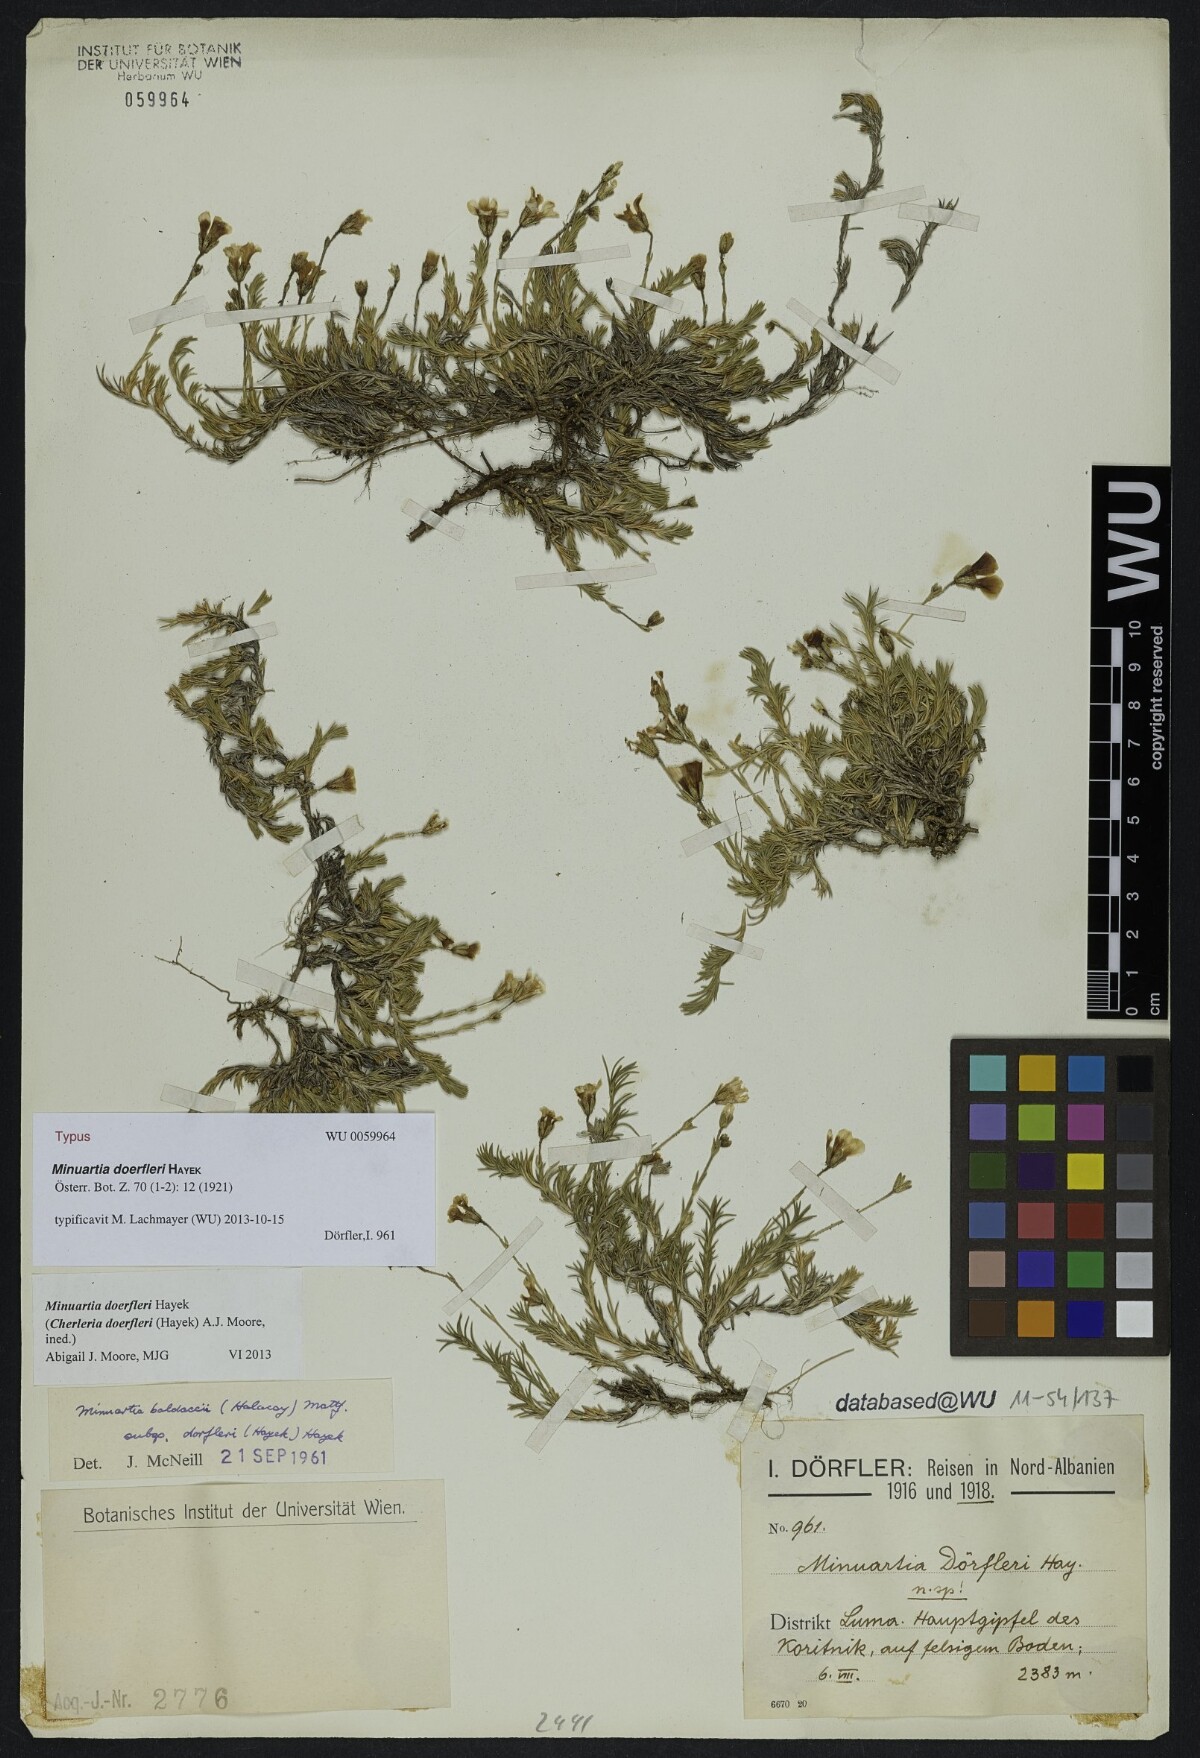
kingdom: Plantae
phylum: Tracheophyta
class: Magnoliopsida
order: Caryophyllales
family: Caryophyllaceae
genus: Cherleria
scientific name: Cherleria doerfleri
